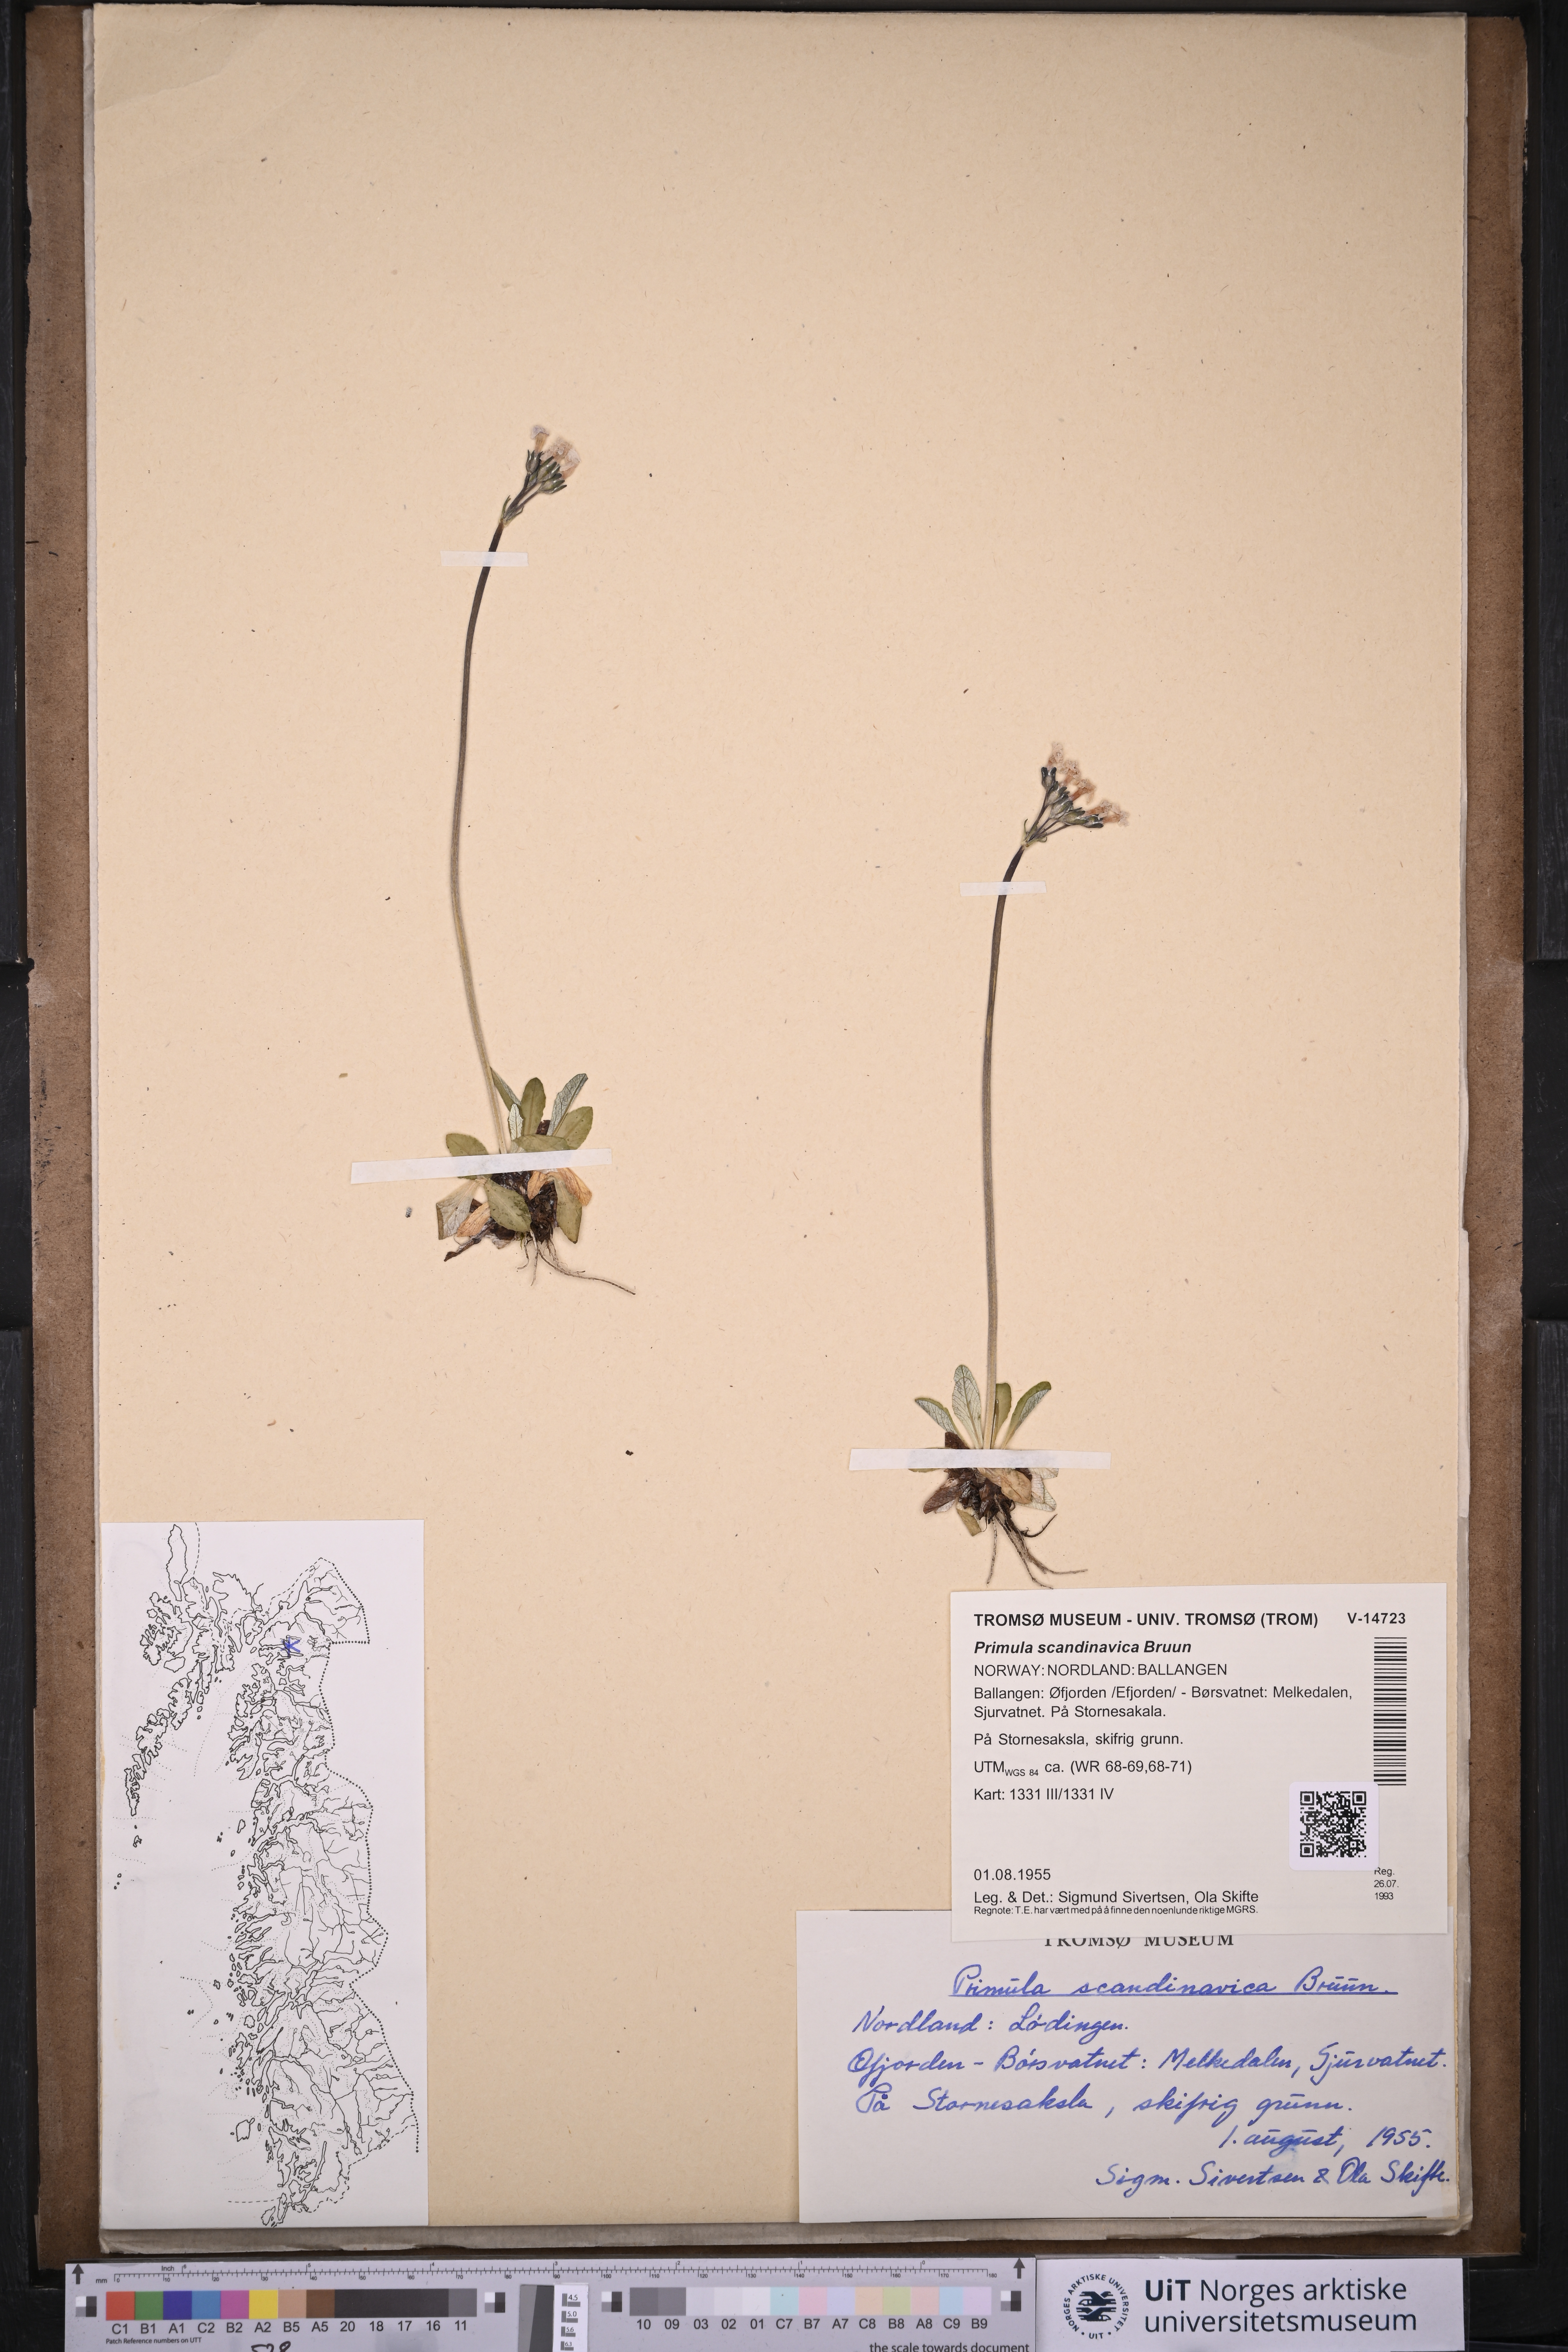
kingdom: Plantae
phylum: Tracheophyta
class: Magnoliopsida
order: Ericales
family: Primulaceae
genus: Primula
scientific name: Primula scandinavica
